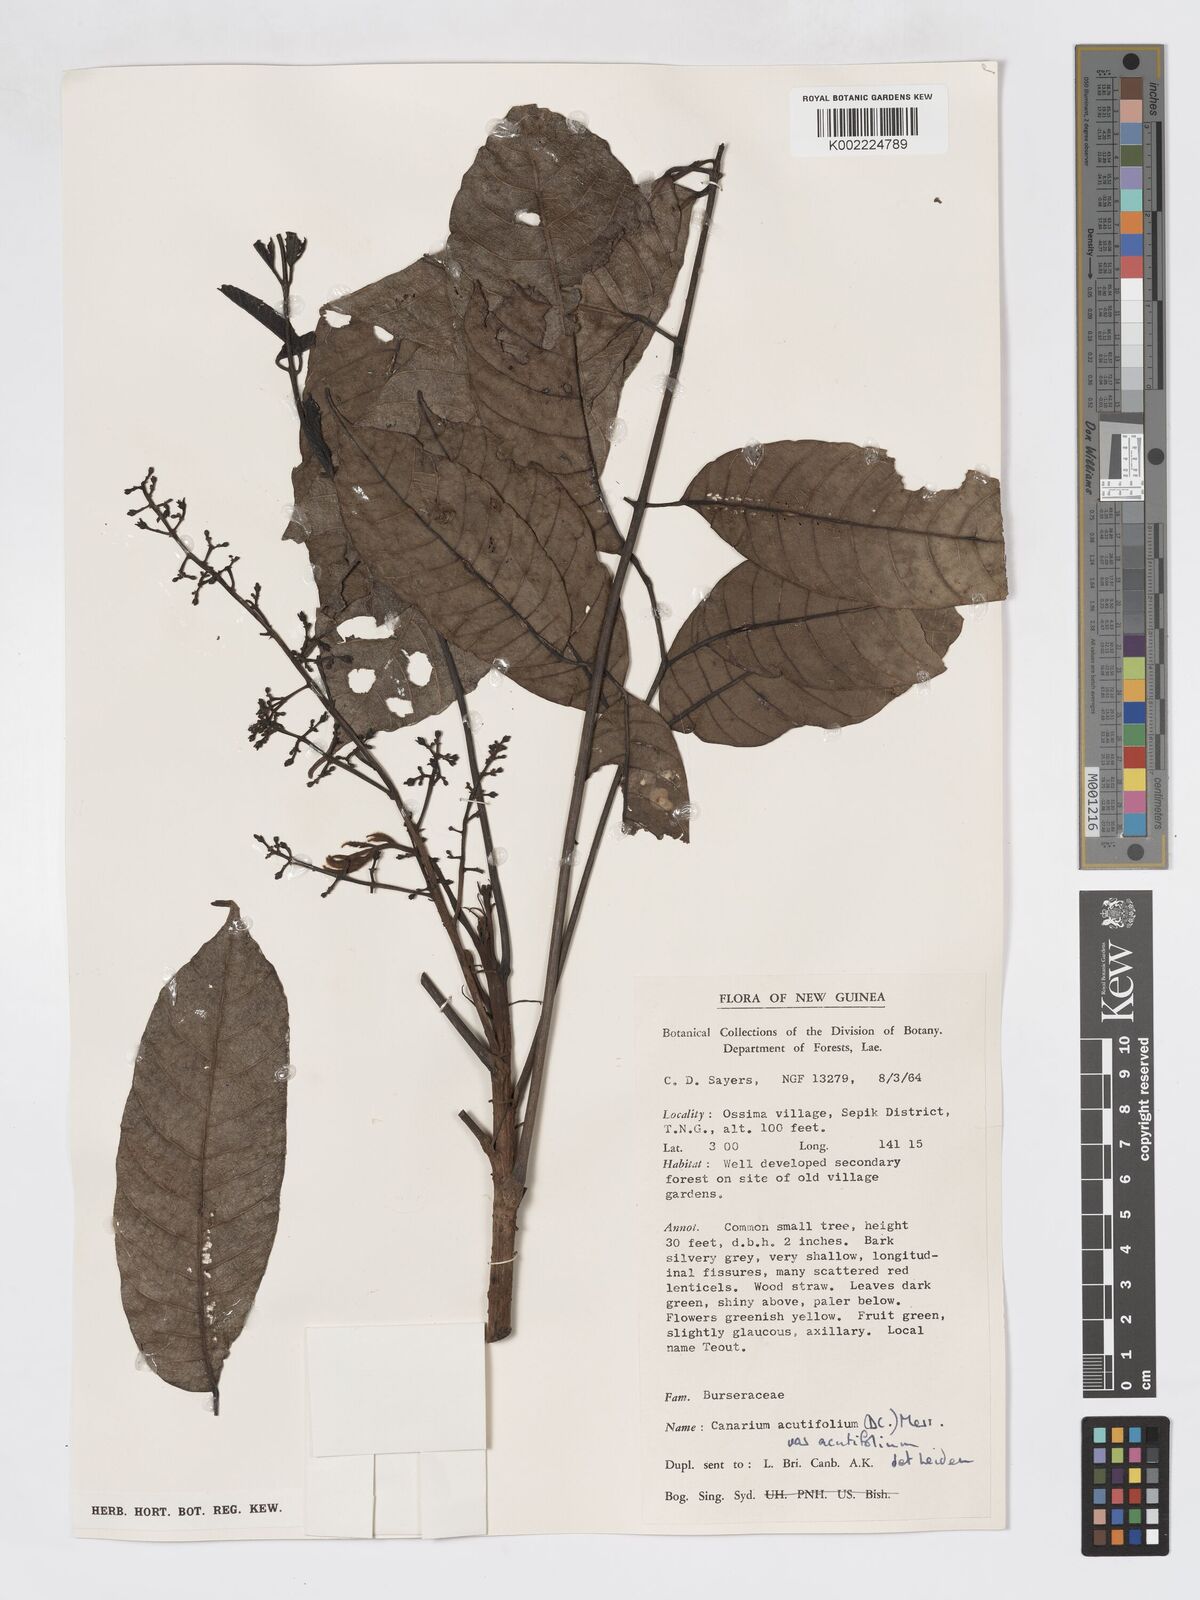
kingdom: Plantae
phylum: Tracheophyta
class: Magnoliopsida
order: Sapindales
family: Burseraceae
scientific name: Burseraceae
